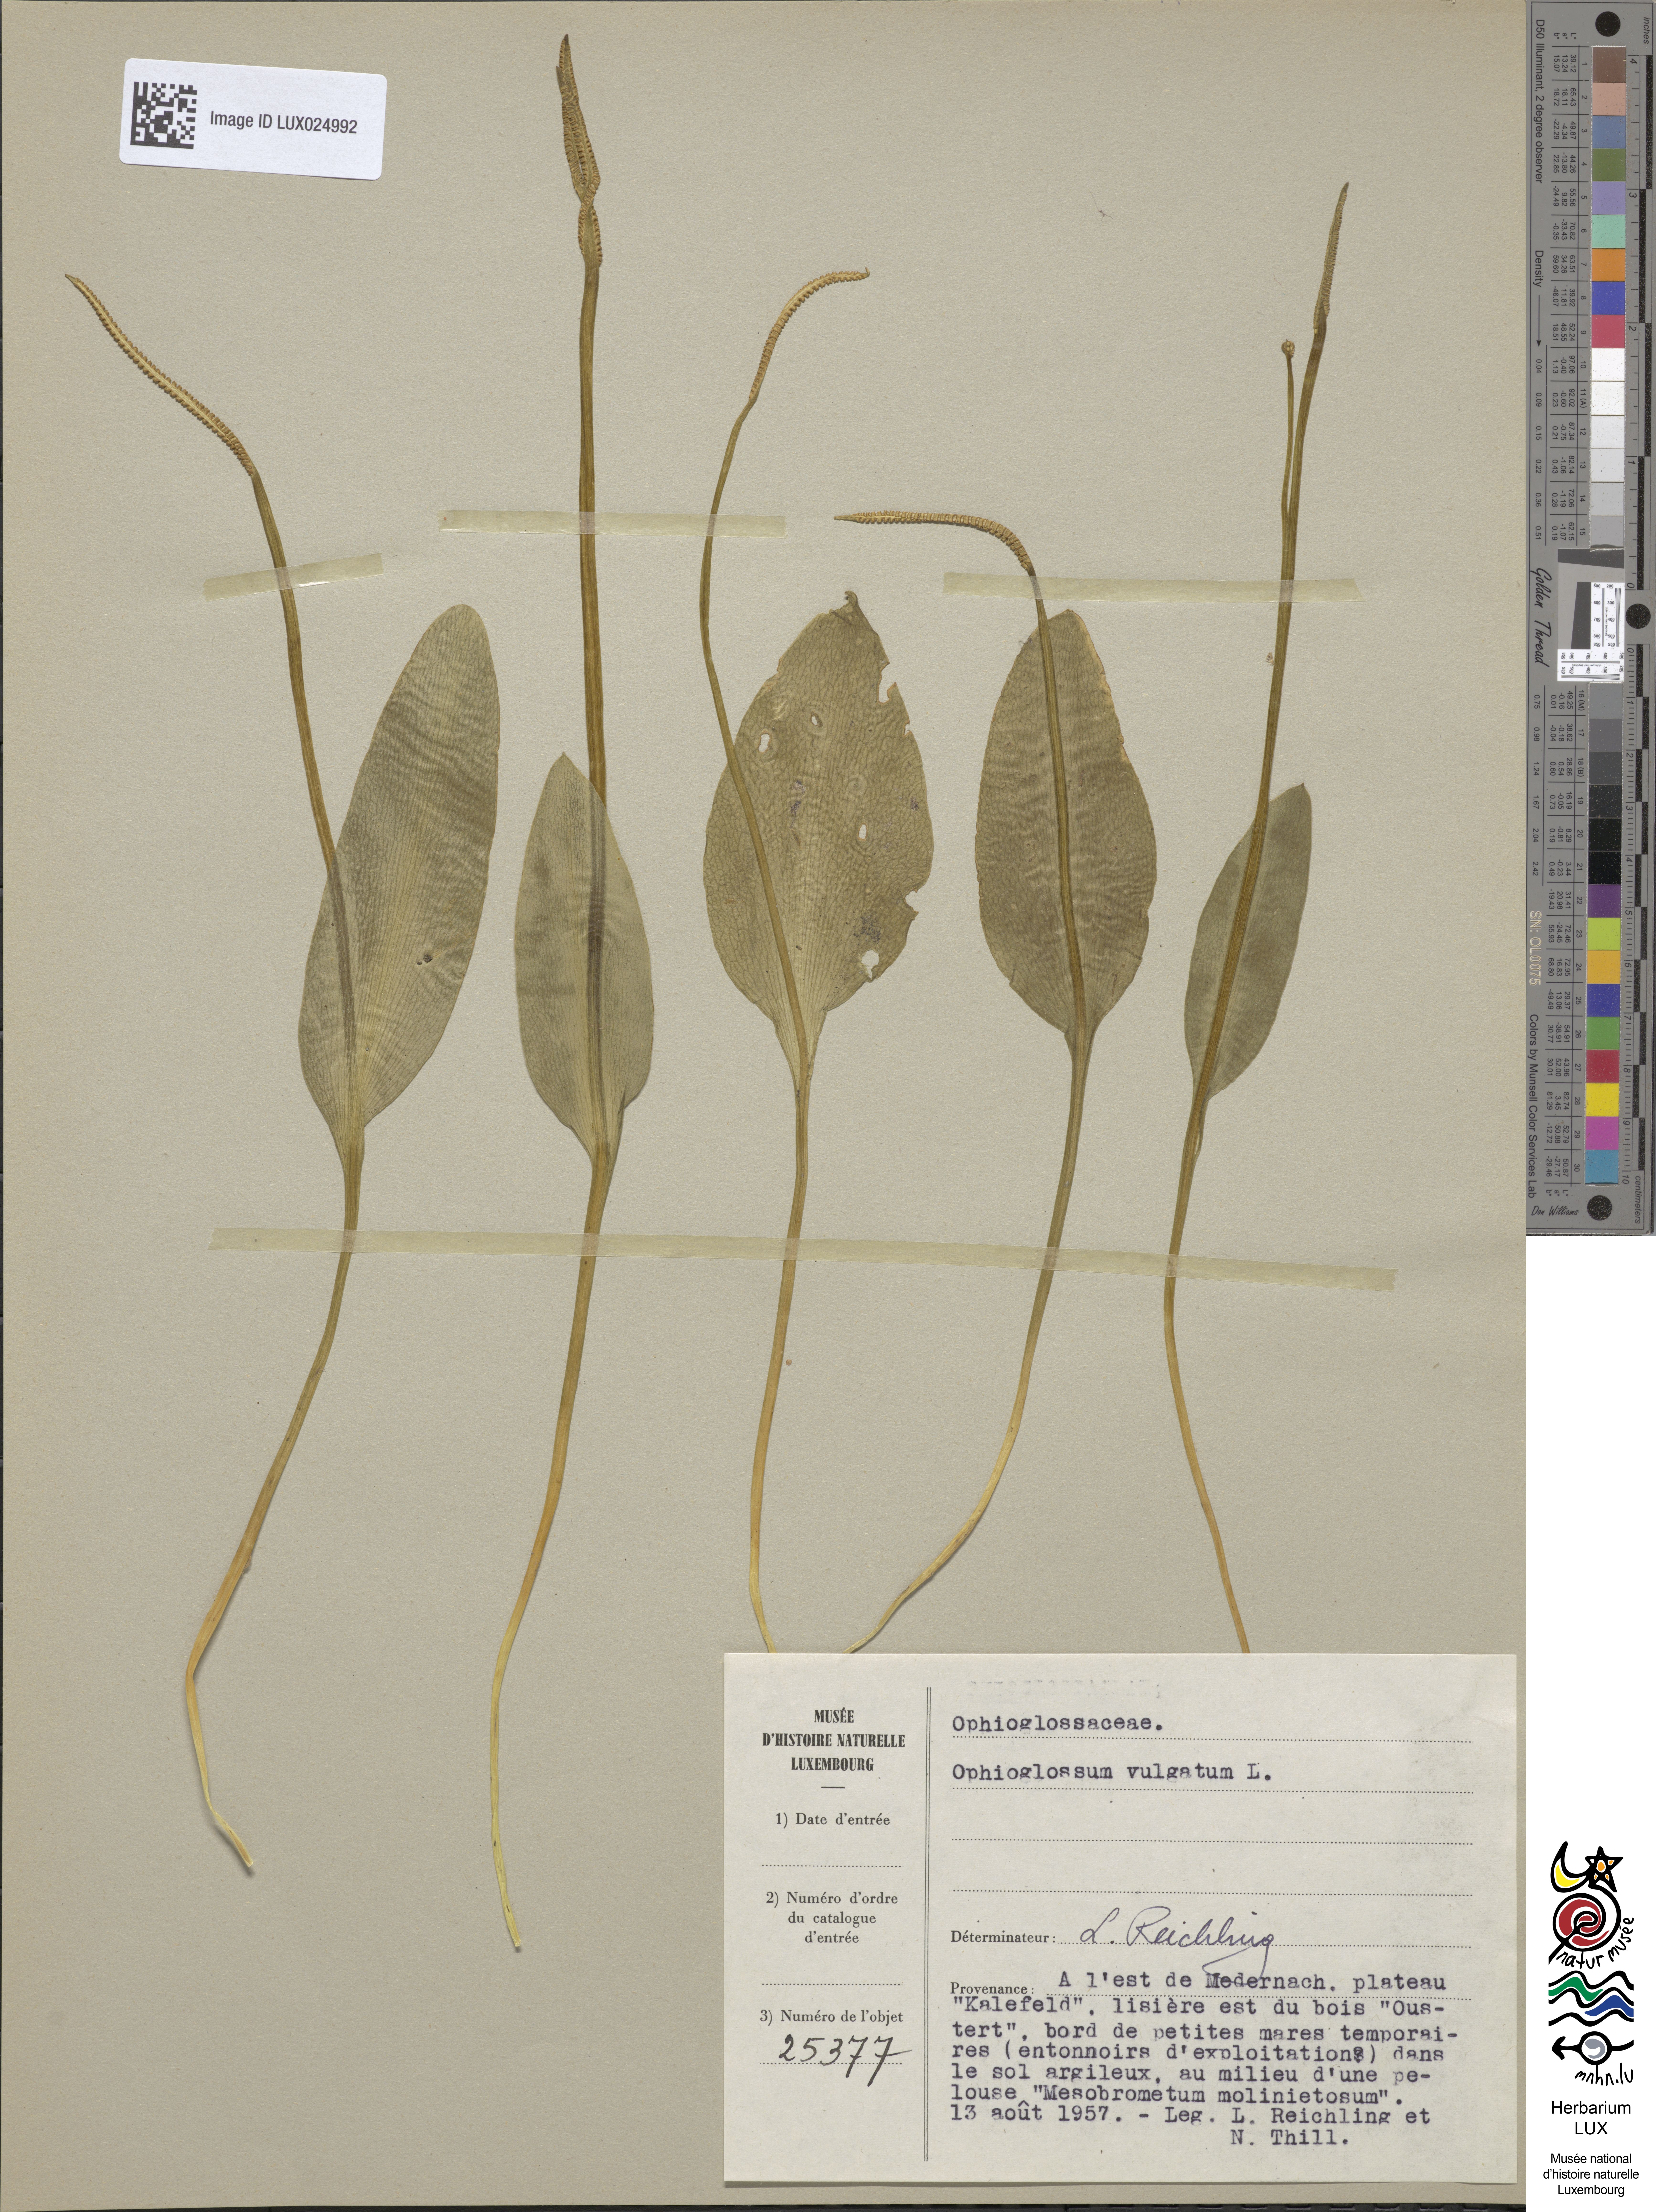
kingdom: Plantae
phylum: Tracheophyta
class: Polypodiopsida
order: Ophioglossales
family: Ophioglossaceae
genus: Ophioglossum
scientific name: Ophioglossum vulgatum
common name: Adder's-tongue
